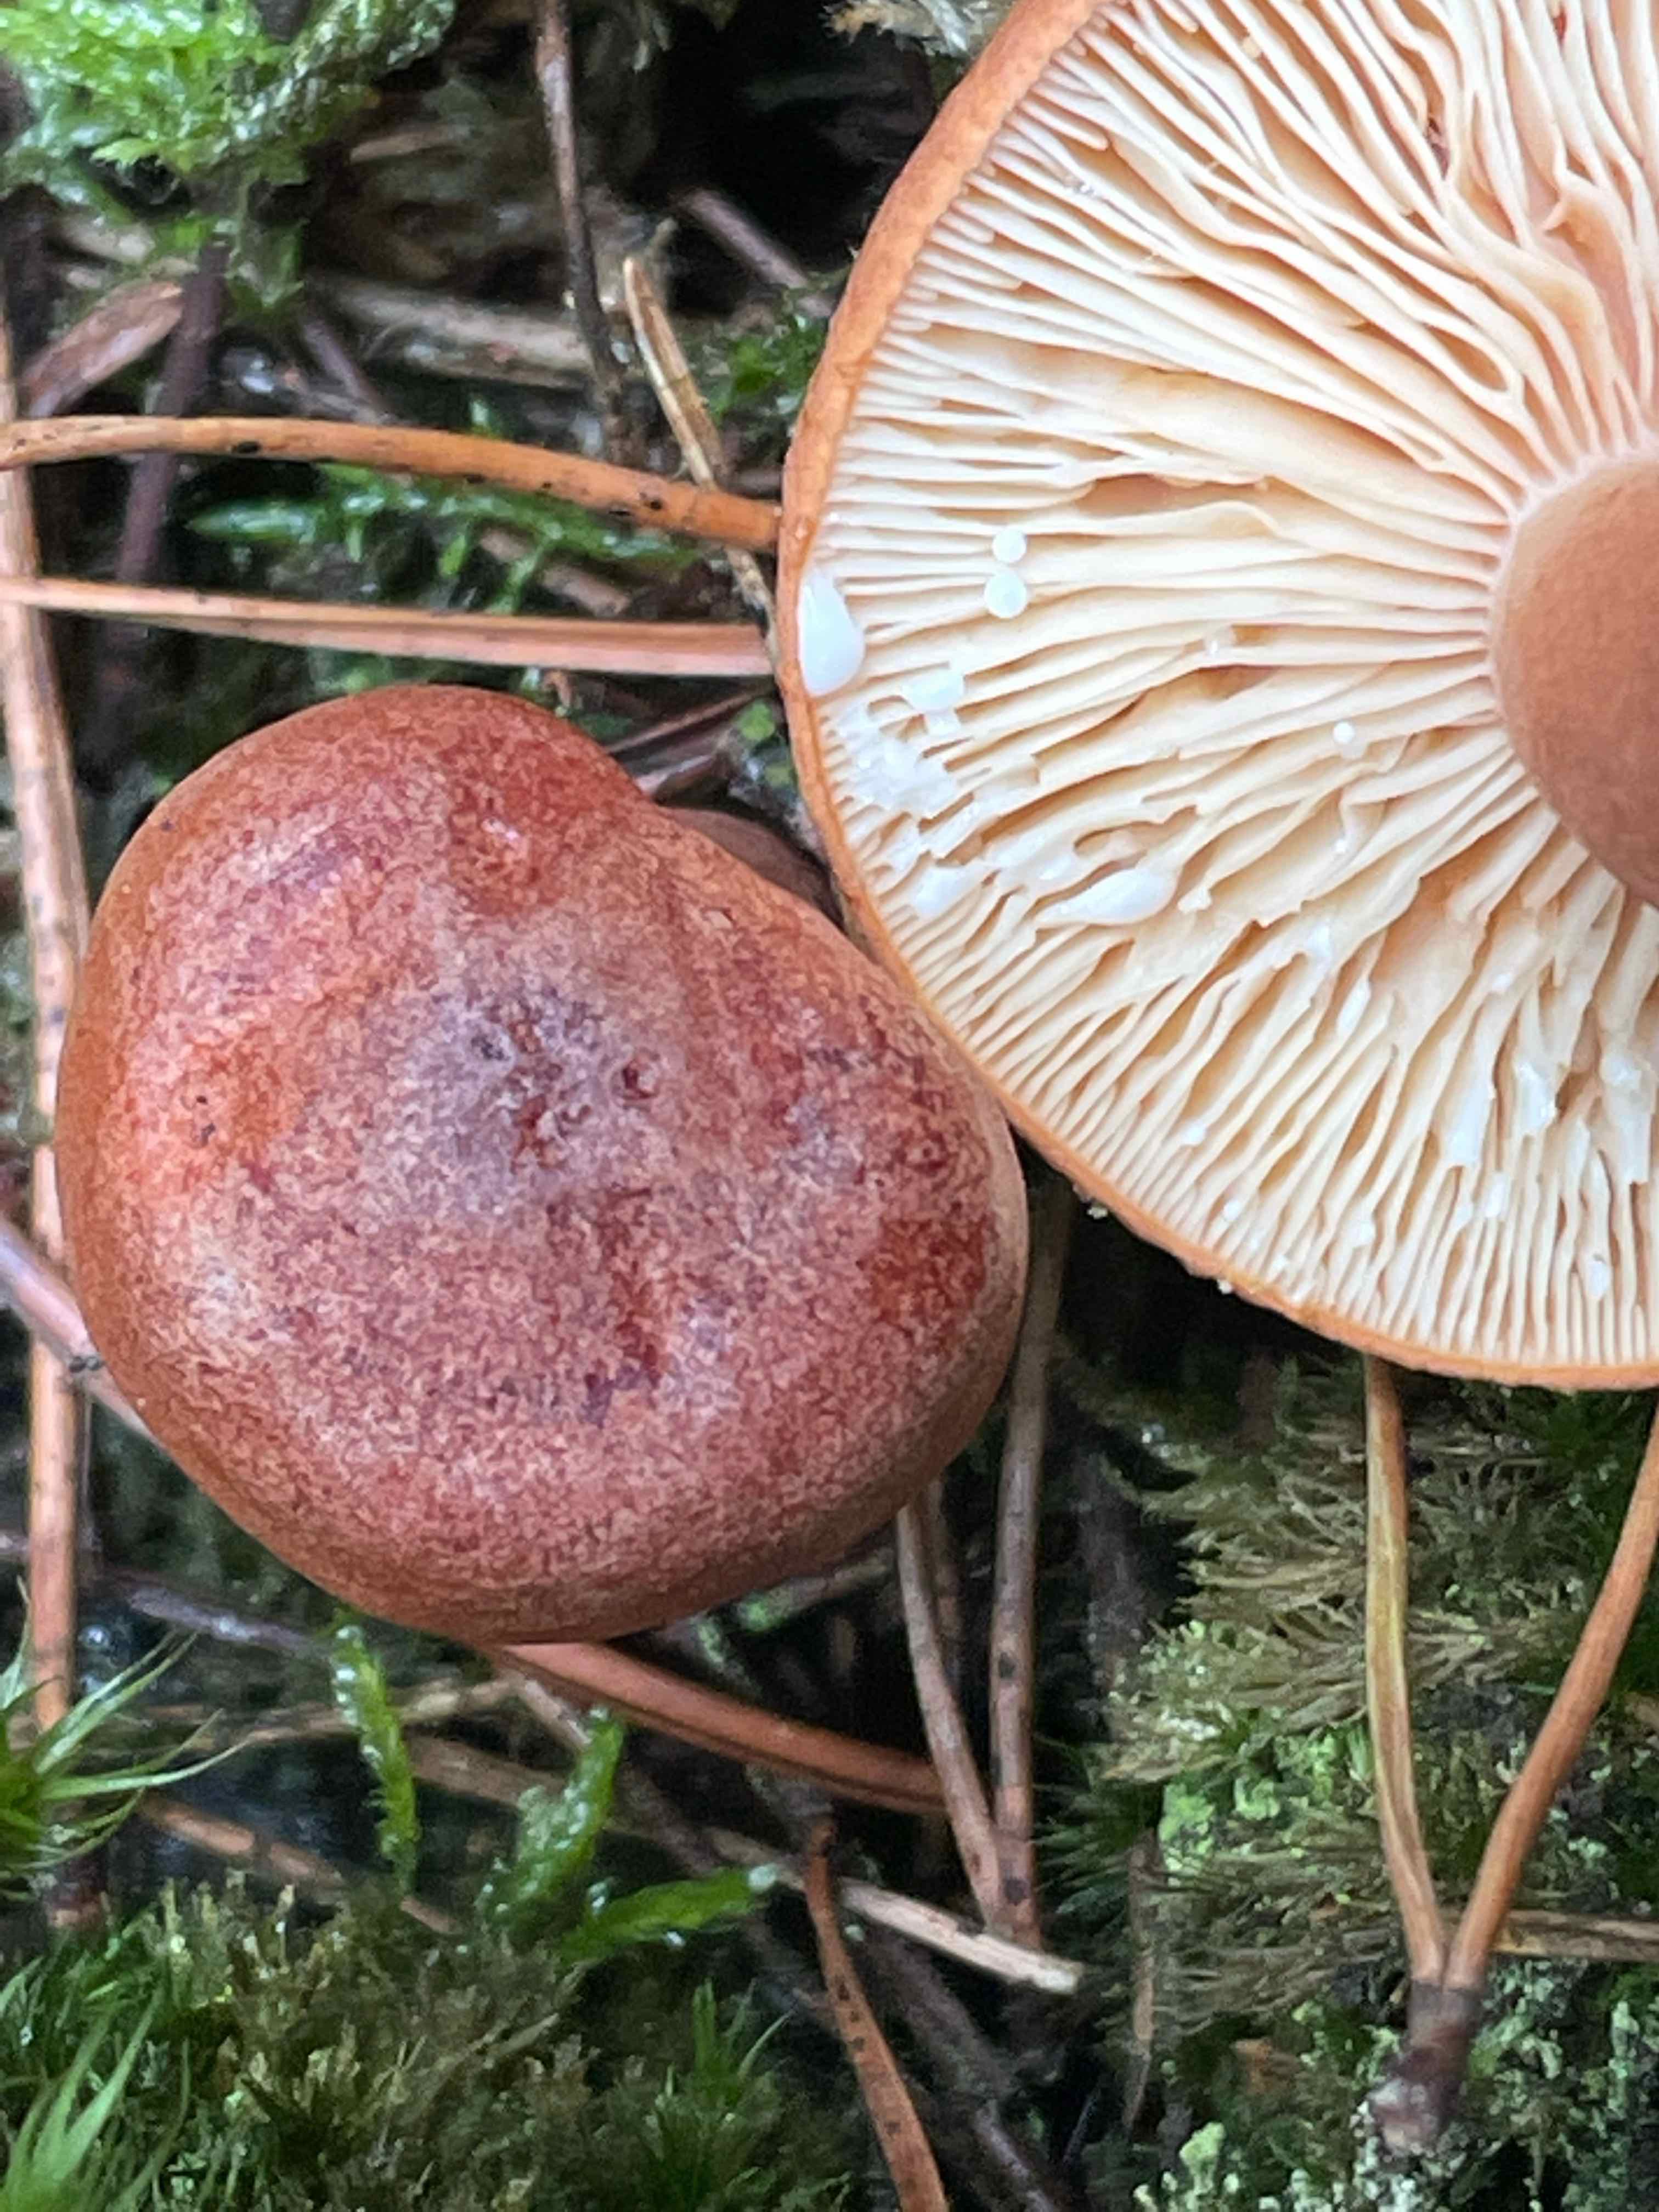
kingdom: Fungi
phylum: Basidiomycota
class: Agaricomycetes
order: Russulales
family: Russulaceae
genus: Lactarius
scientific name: Lactarius rufus
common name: rødbrun mælkehat
